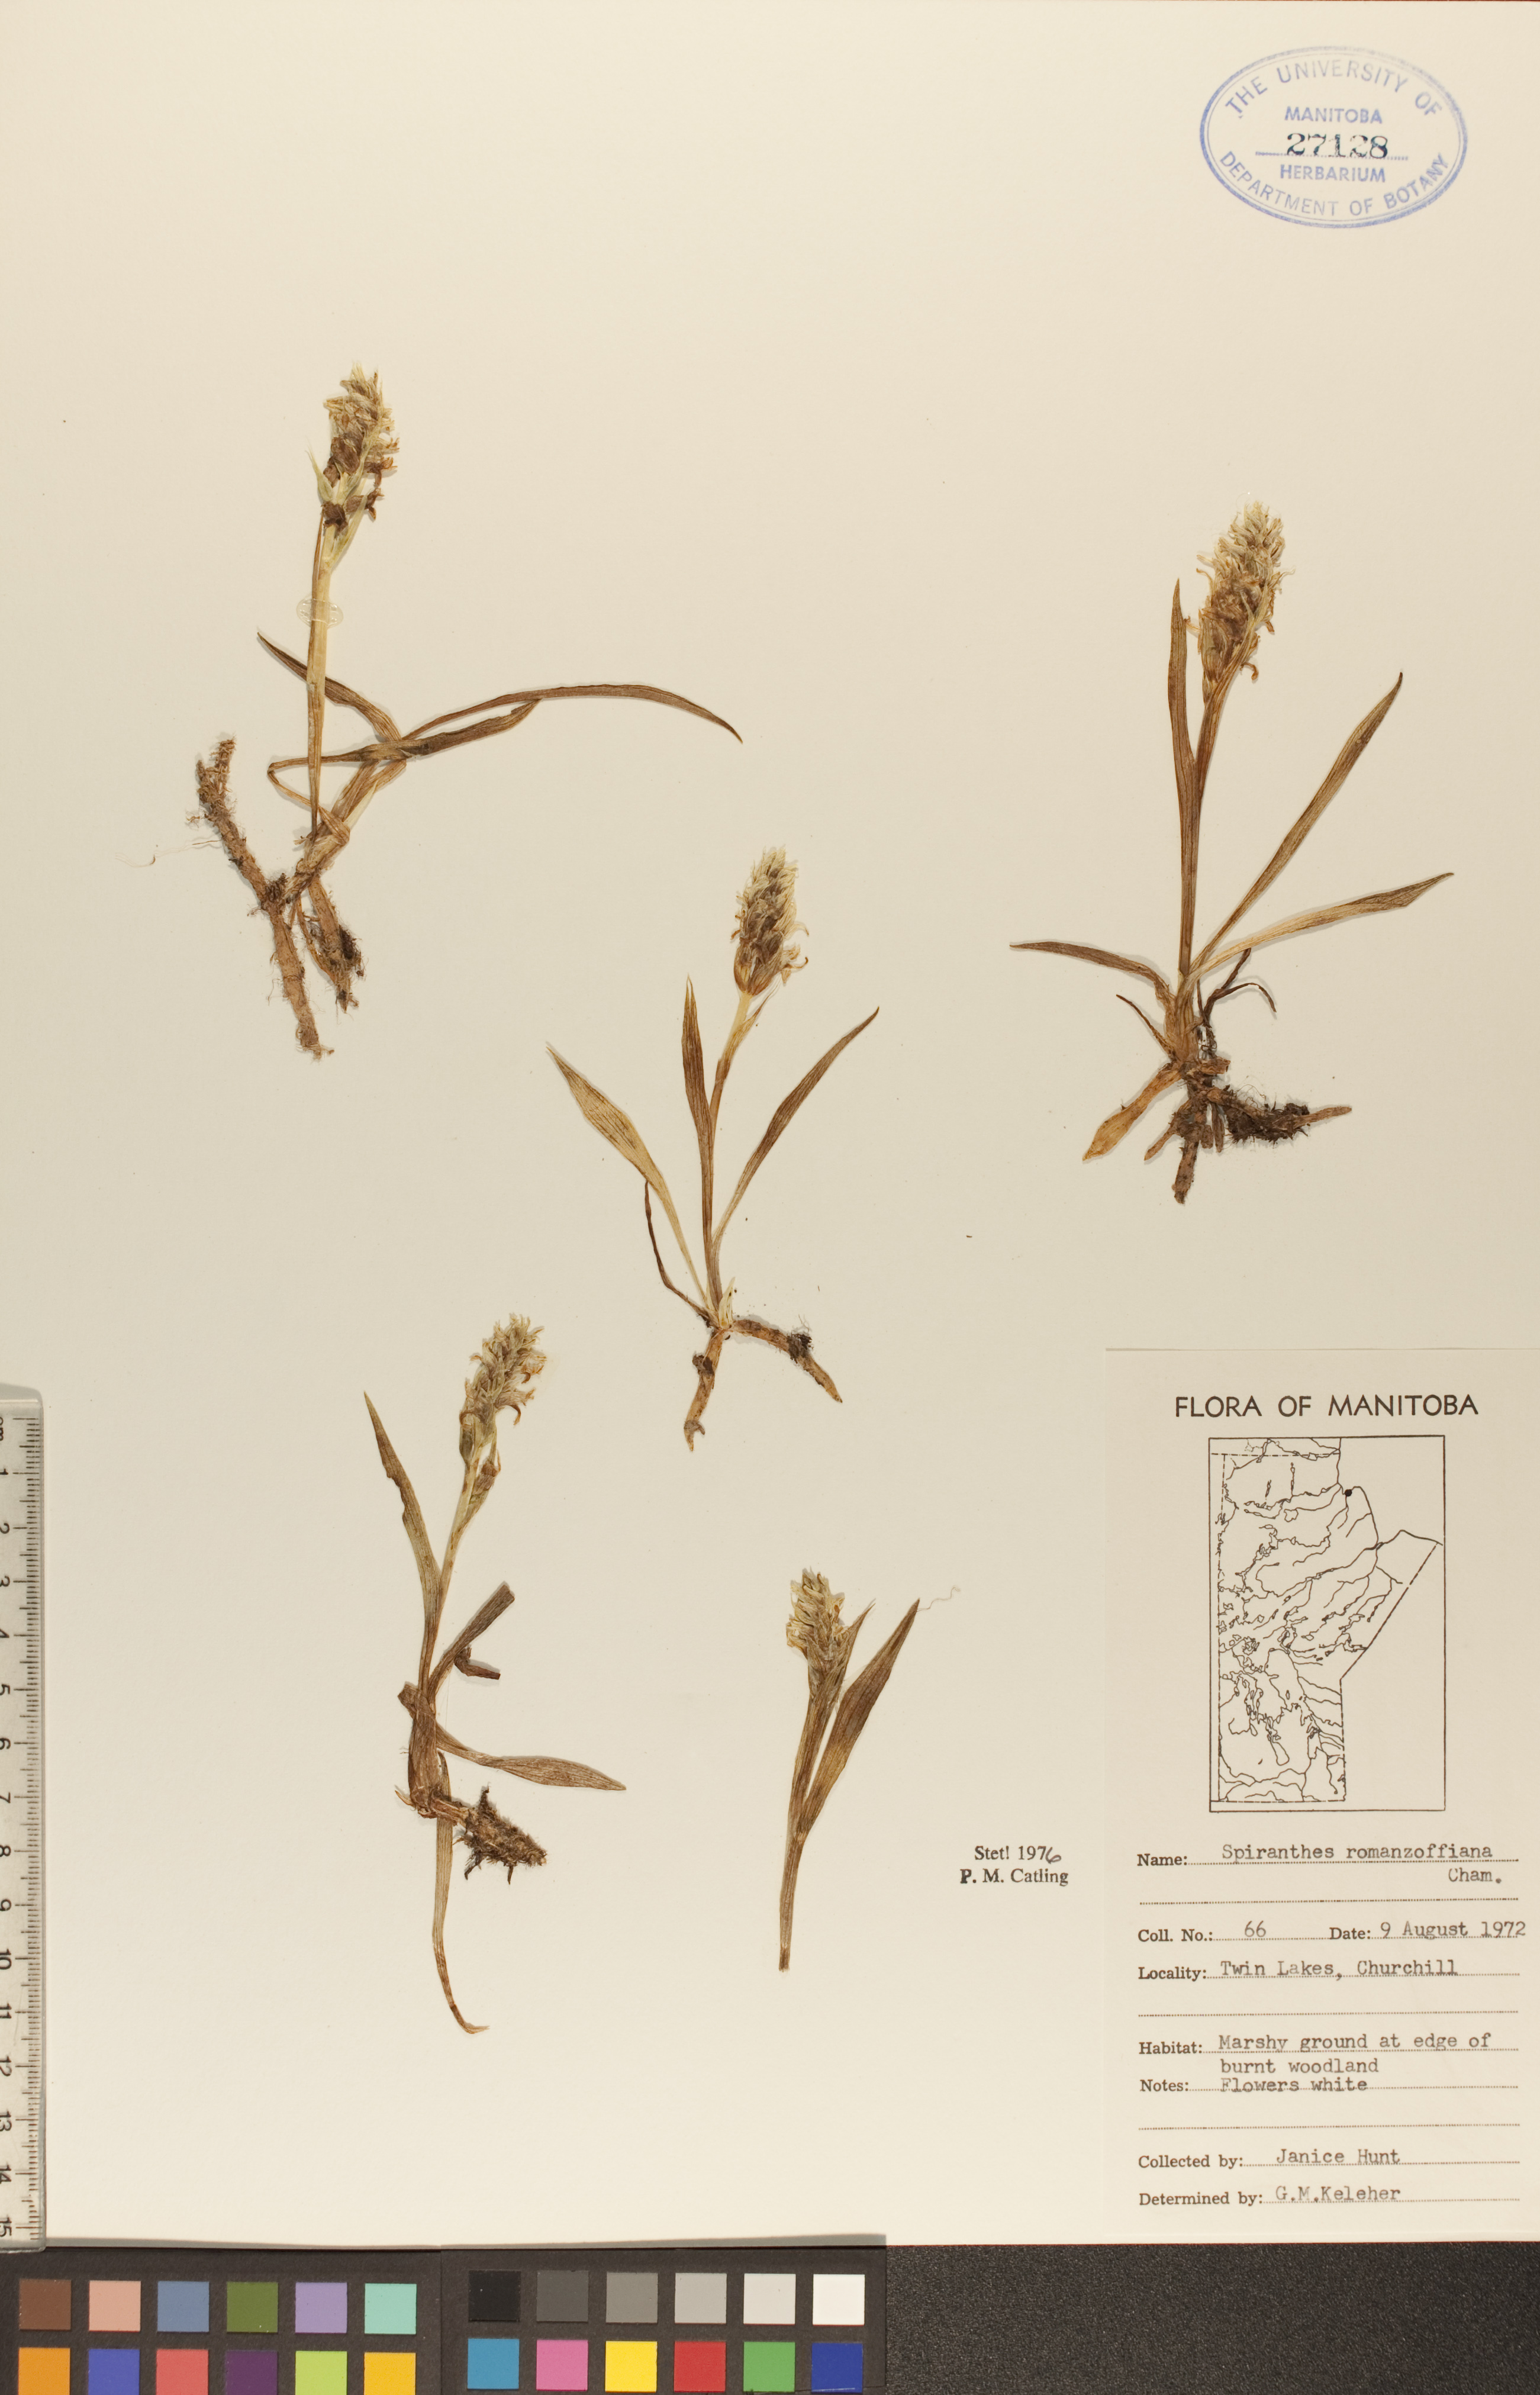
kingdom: Plantae
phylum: Tracheophyta
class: Liliopsida
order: Asparagales
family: Orchidaceae
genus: Spiranthes
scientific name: Spiranthes romanzoffiana
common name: Irish lady's-tresses
